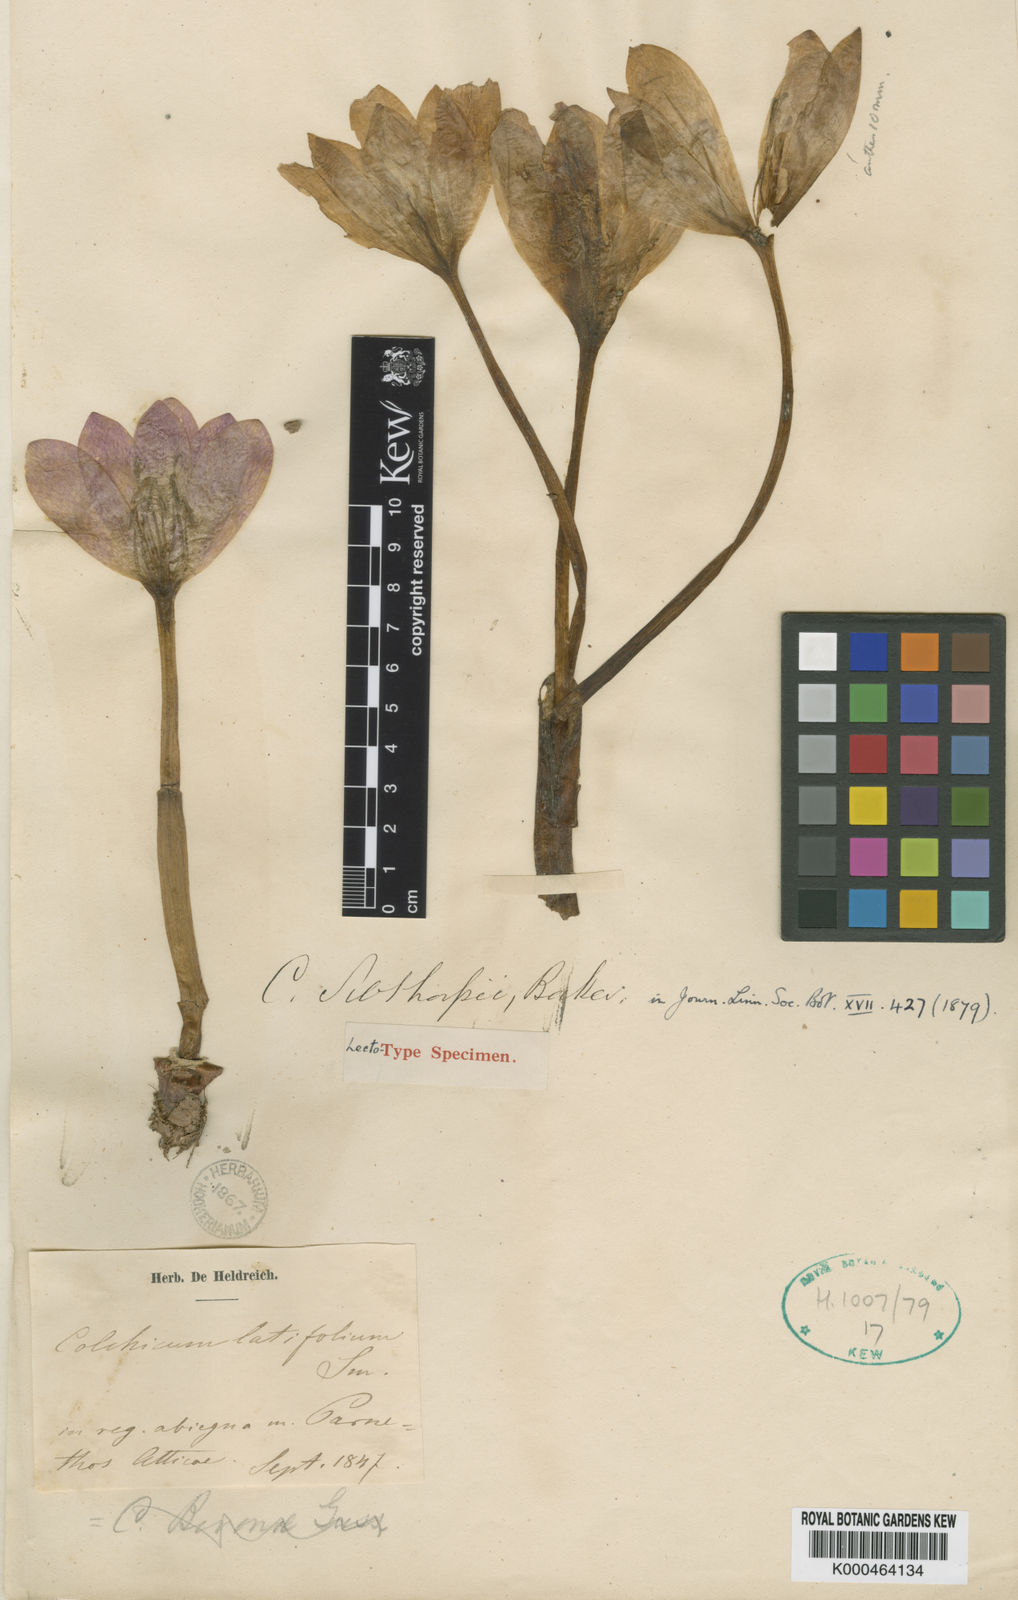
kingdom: Plantae
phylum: Tracheophyta
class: Liliopsida
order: Liliales
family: Colchicaceae
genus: Colchicum
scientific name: Colchicum bivonae
